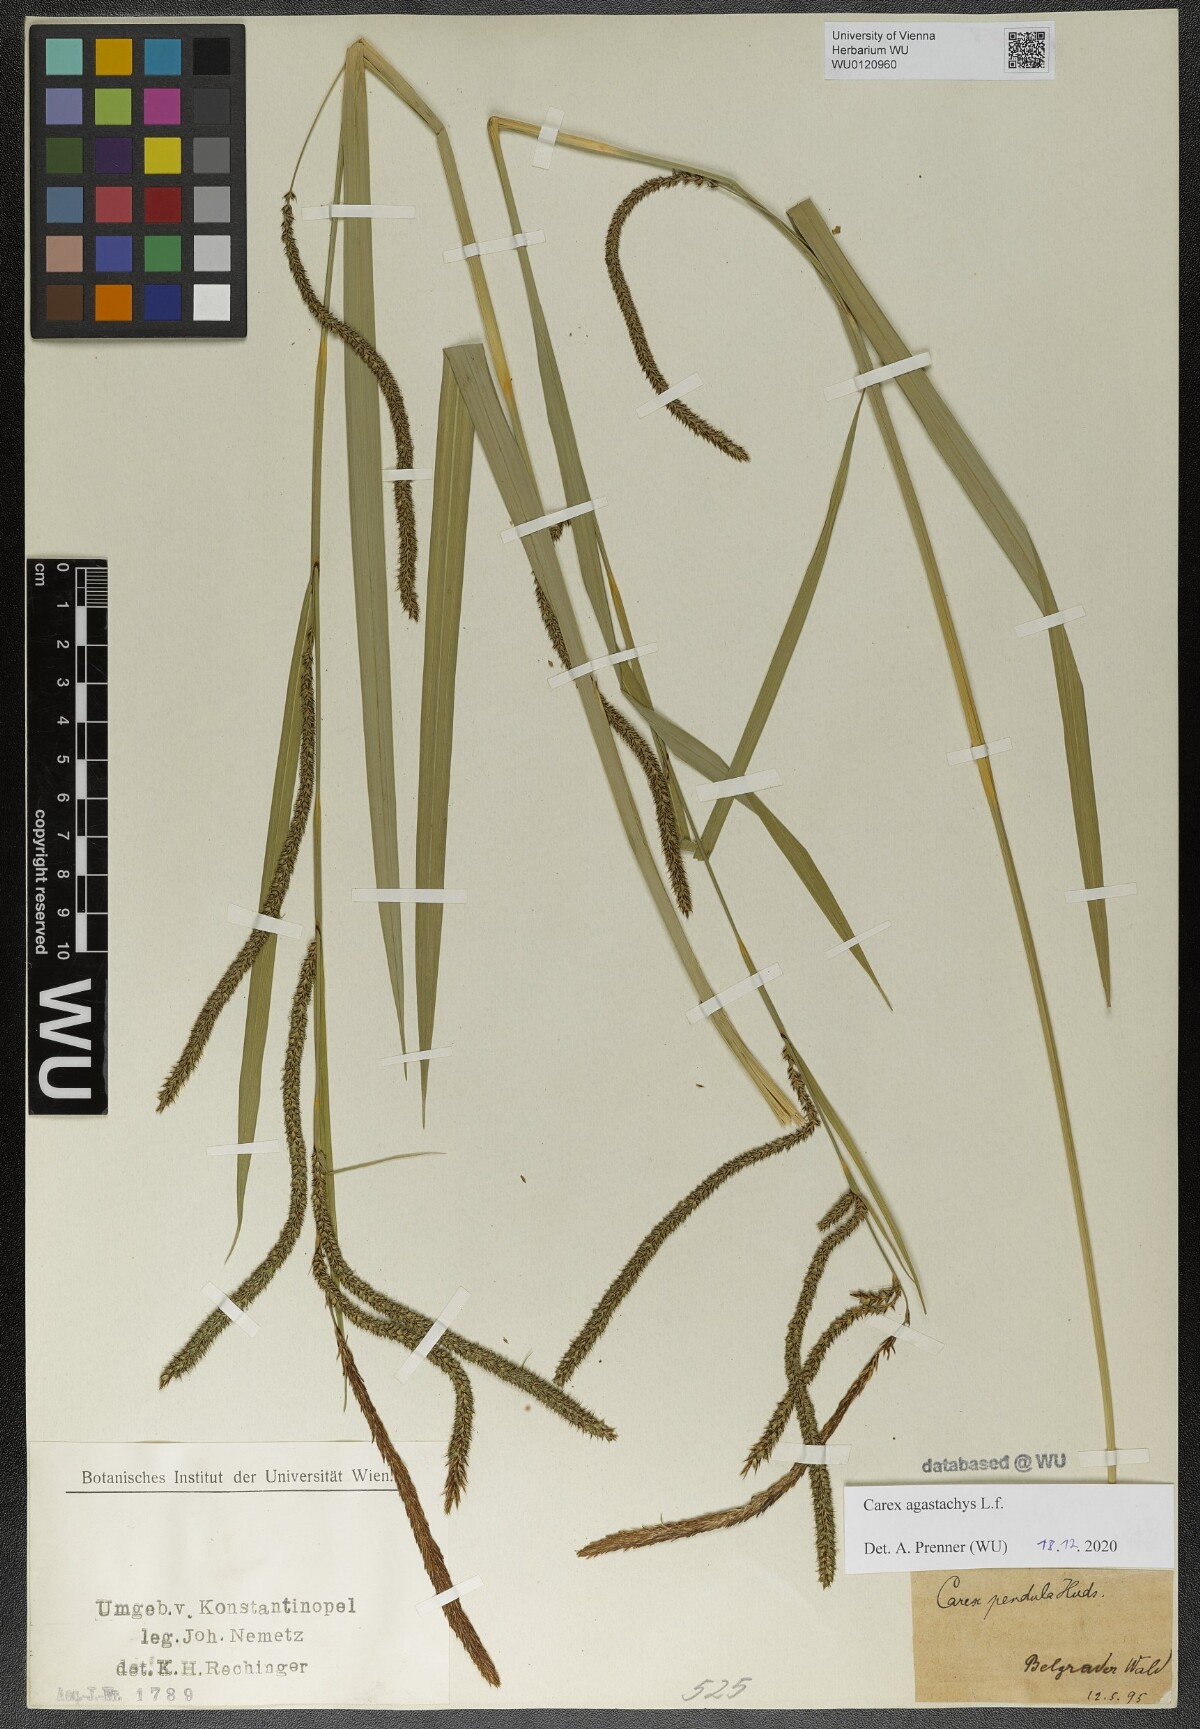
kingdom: Plantae
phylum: Tracheophyta
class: Liliopsida
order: Poales
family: Cyperaceae
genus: Carex
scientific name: Carex agastachys
